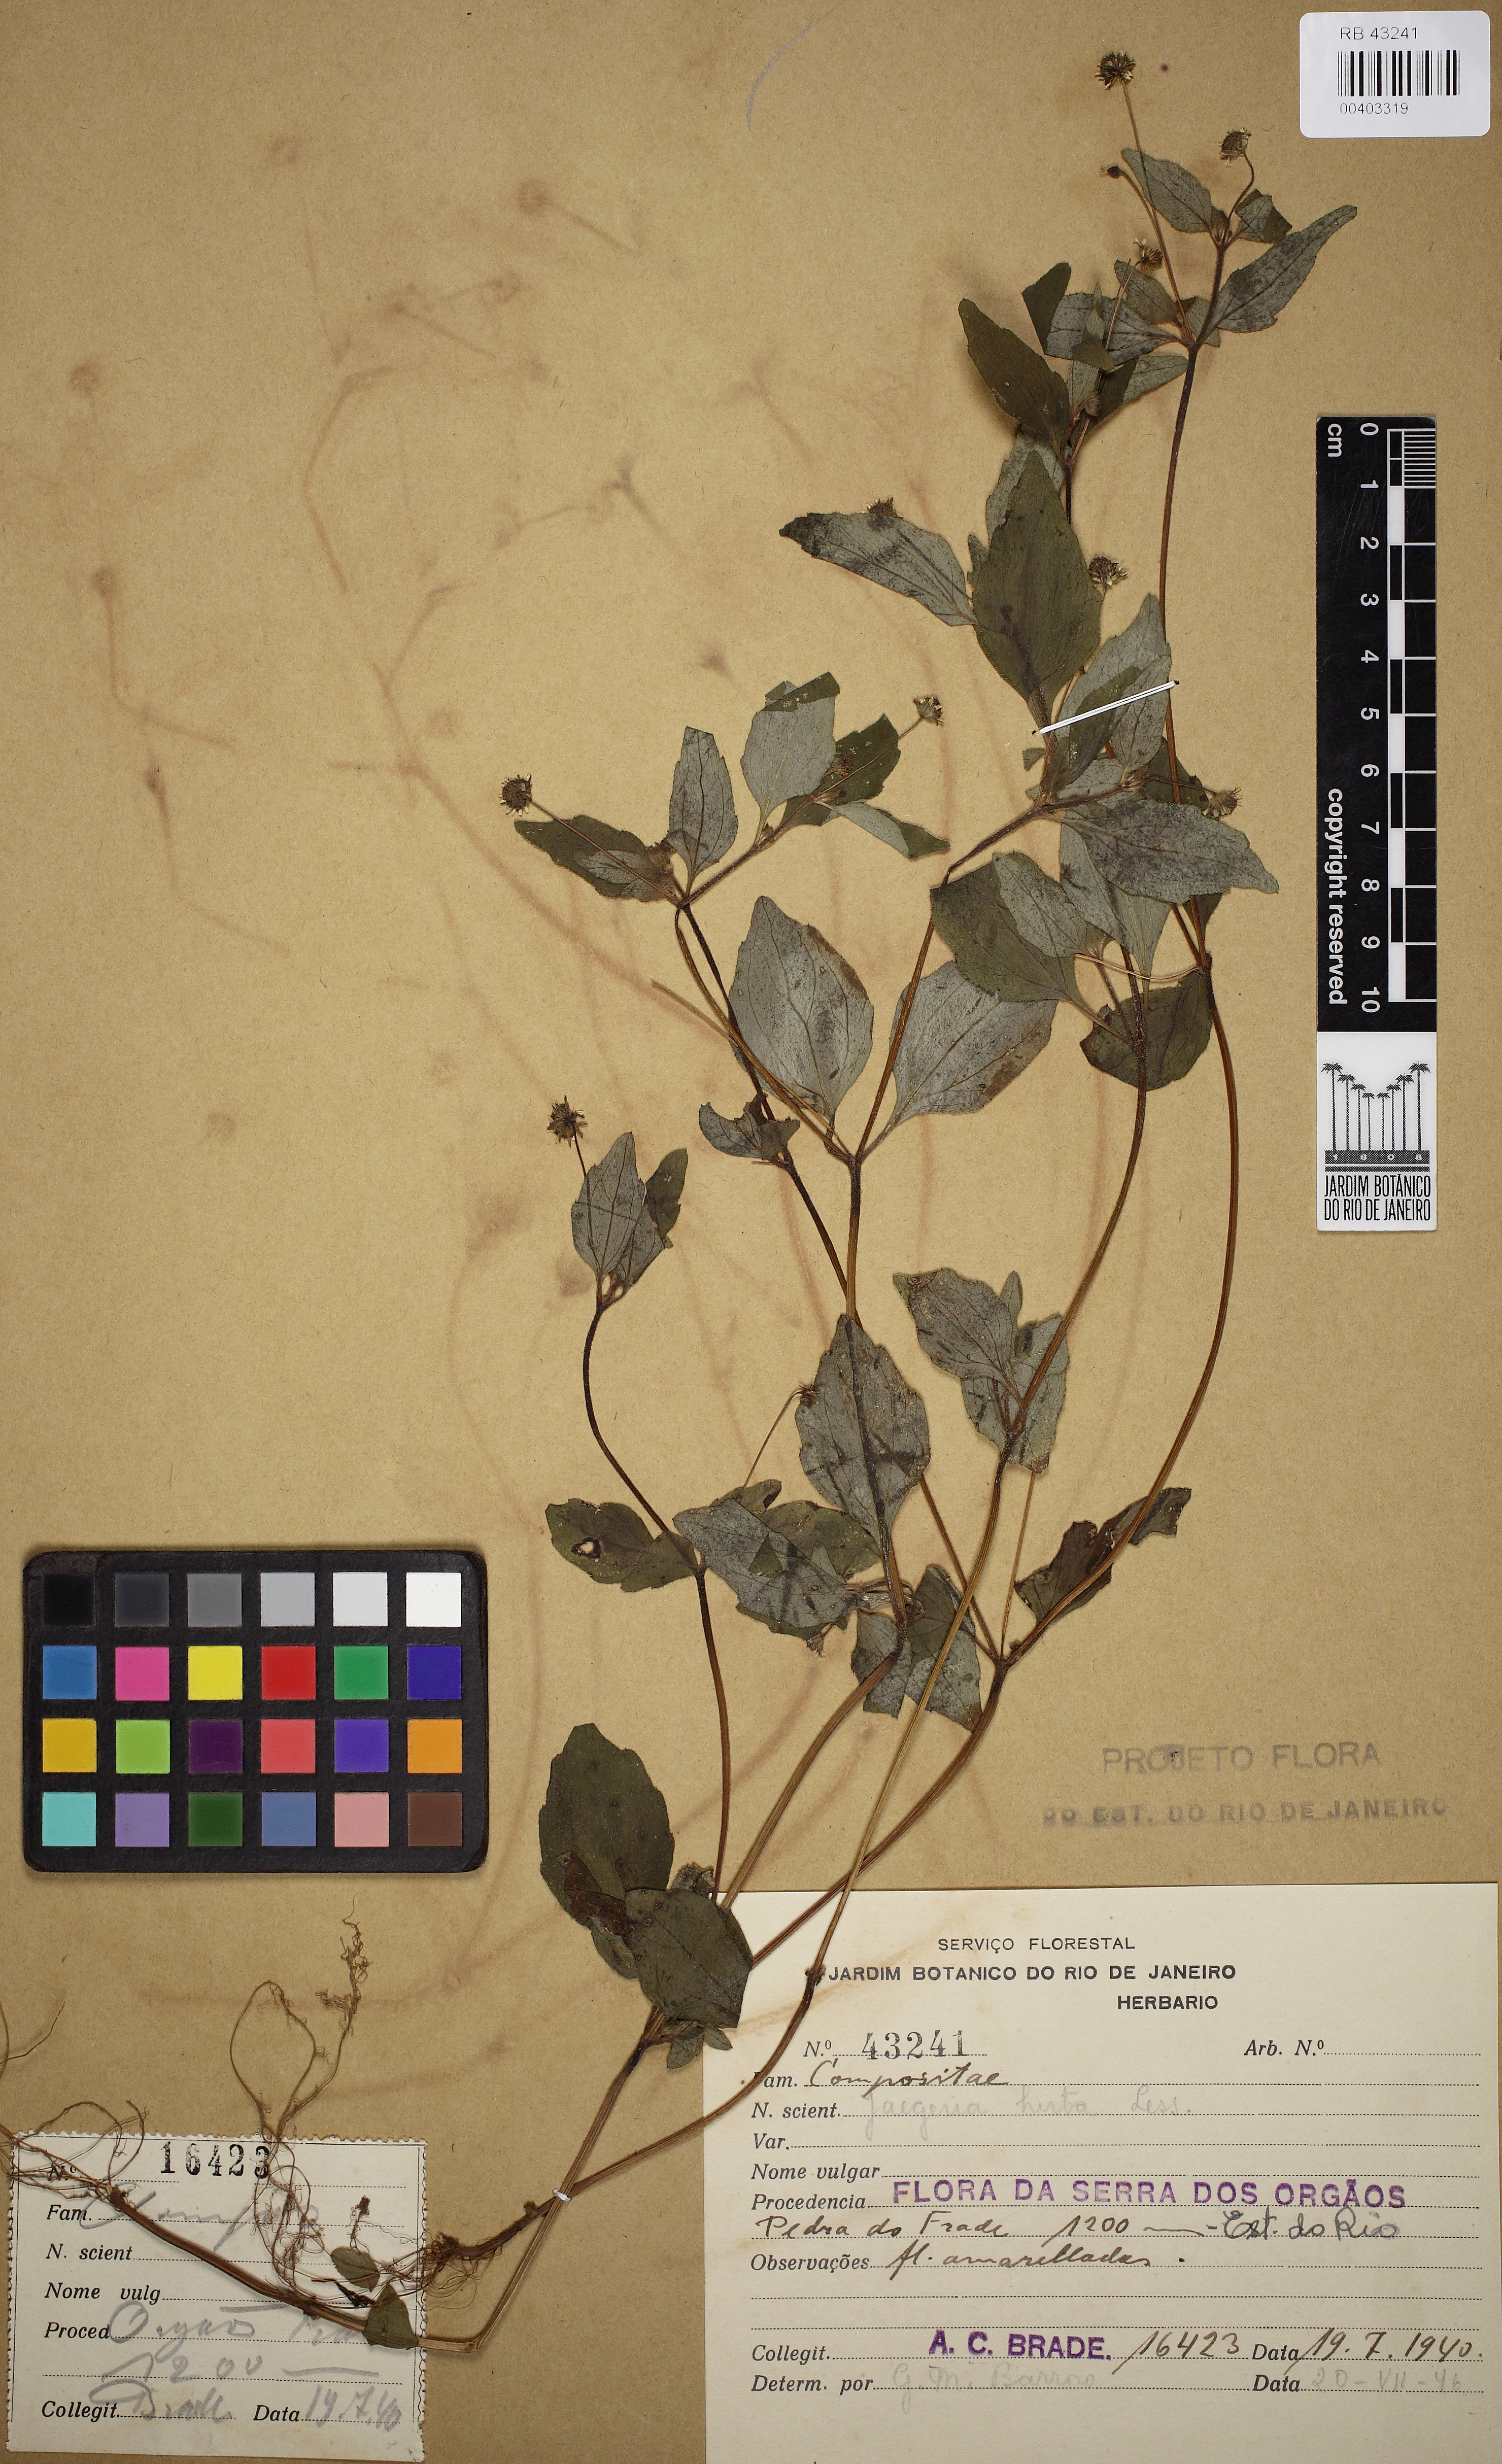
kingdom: Plantae
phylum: Tracheophyta
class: Magnoliopsida
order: Asterales
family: Asteraceae
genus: Jaegeria
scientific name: Jaegeria hirta
